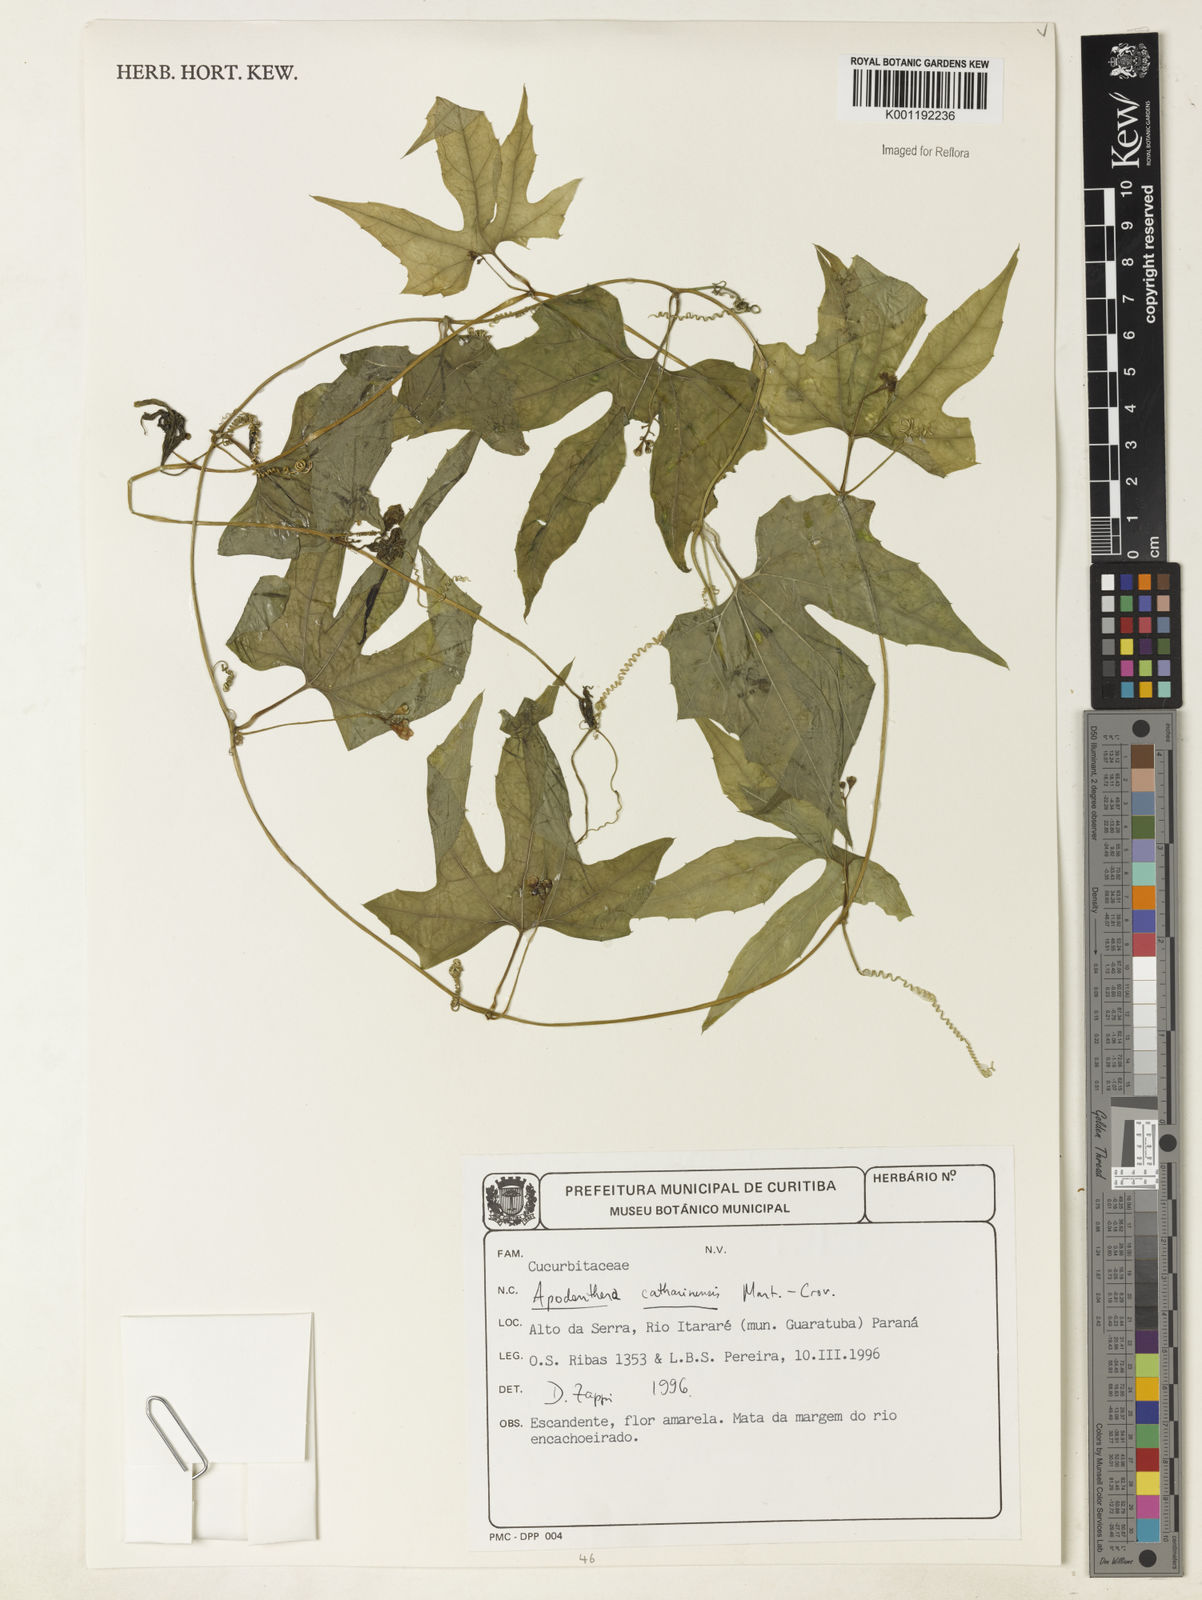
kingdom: Plantae
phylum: Tracheophyta
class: Magnoliopsida
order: Cucurbitales
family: Cucurbitaceae
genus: Apodanthera
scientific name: Apodanthera catharinensis
